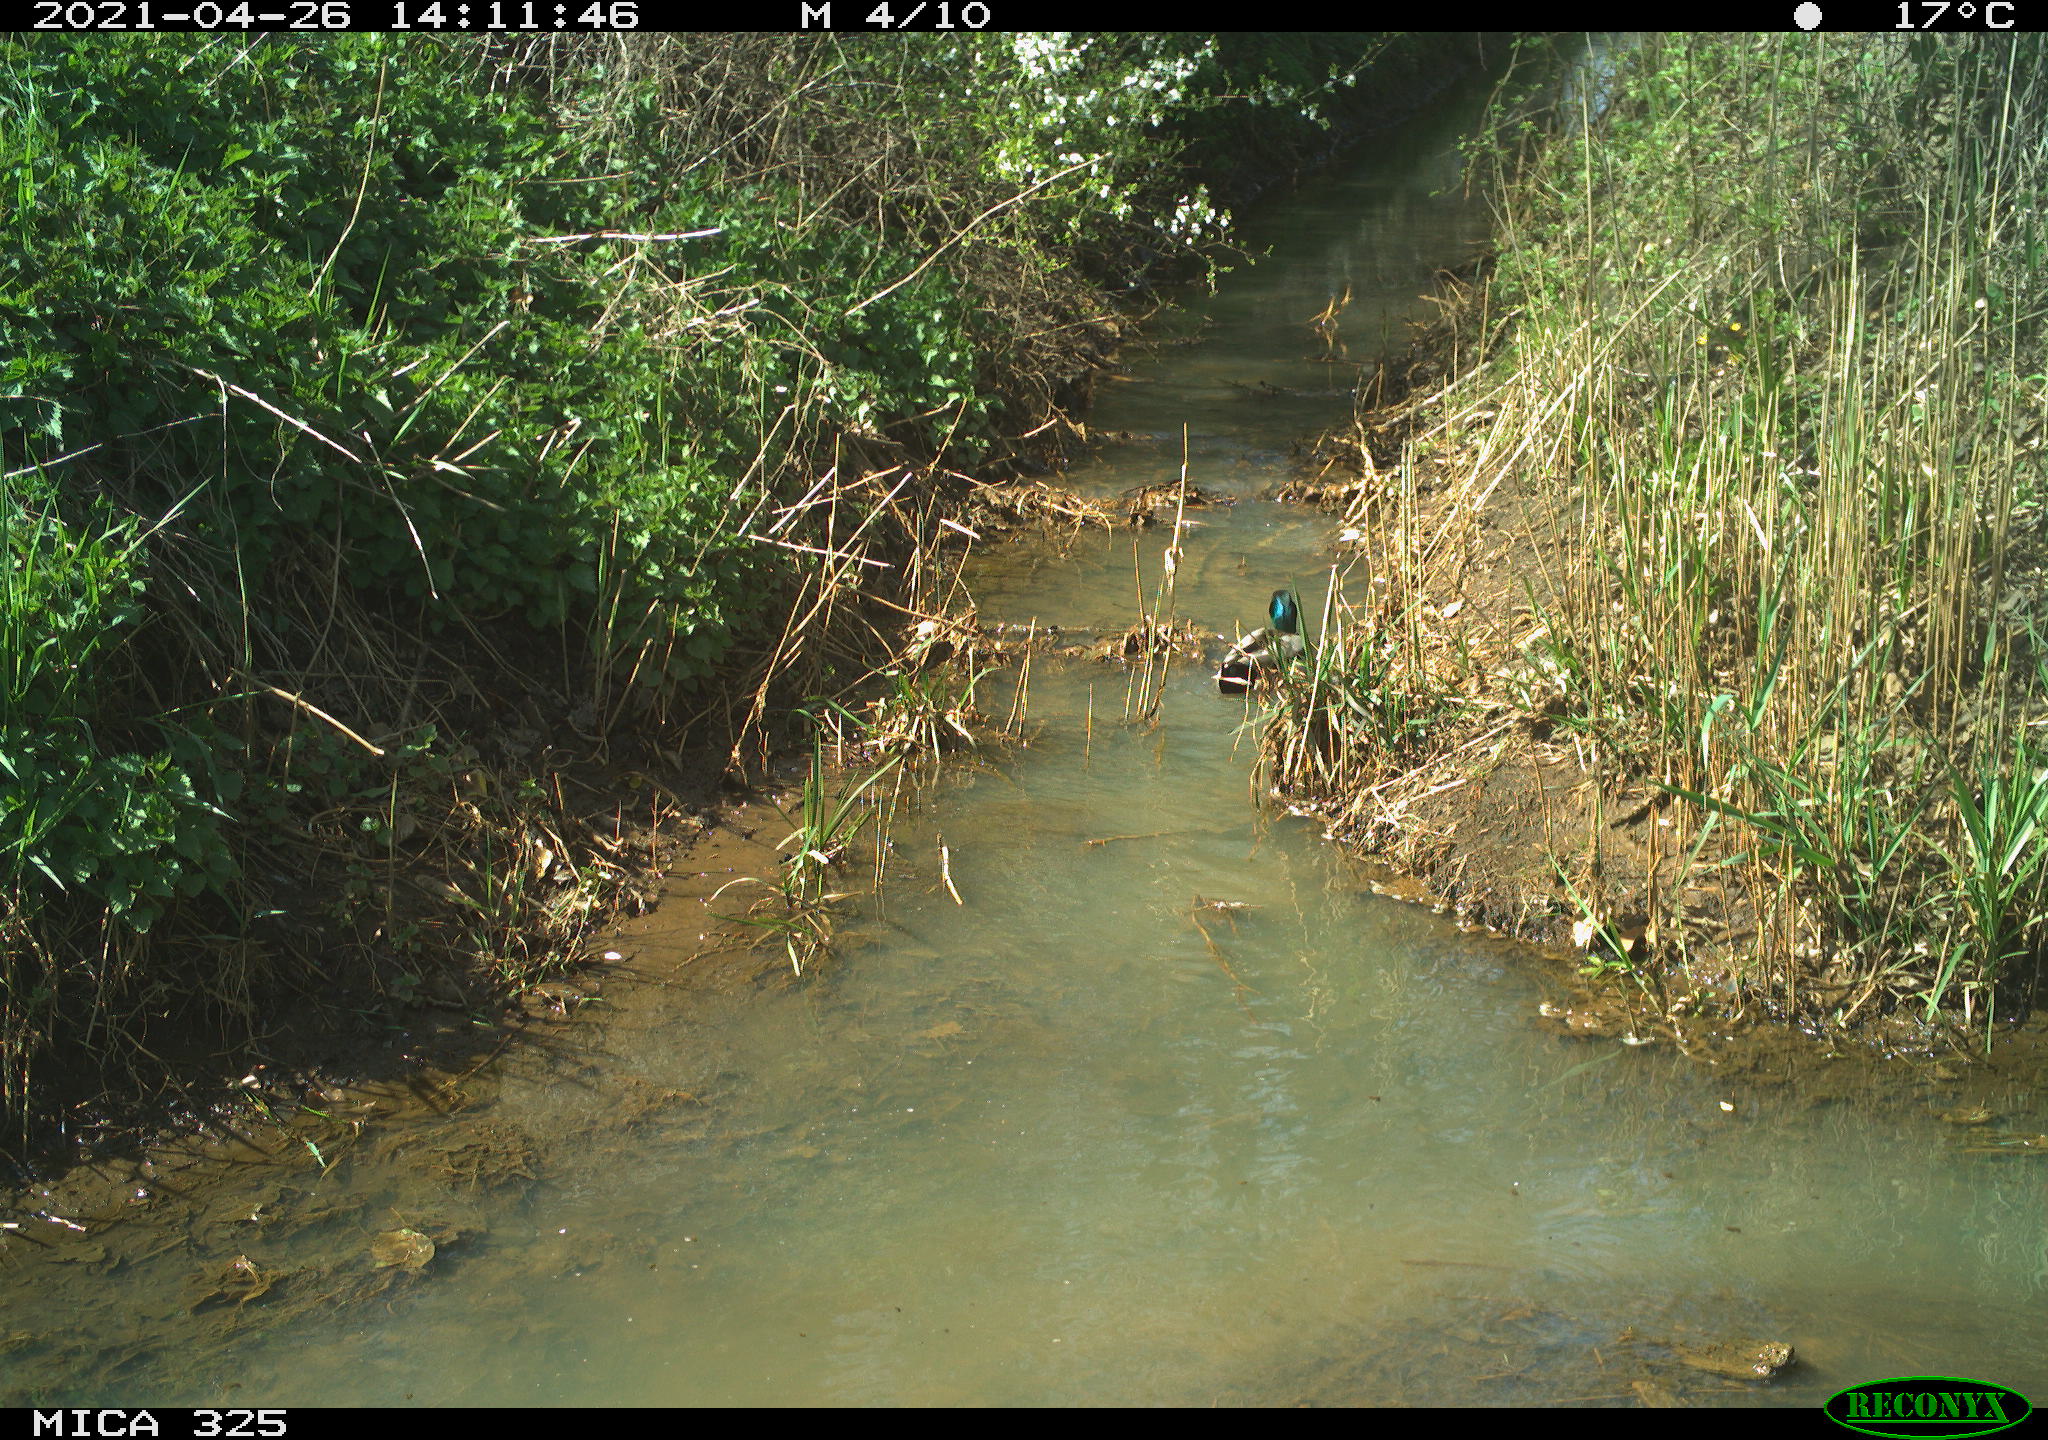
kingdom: Animalia
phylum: Chordata
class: Aves
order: Anseriformes
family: Anatidae
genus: Anas
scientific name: Anas platyrhynchos
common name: Mallard
